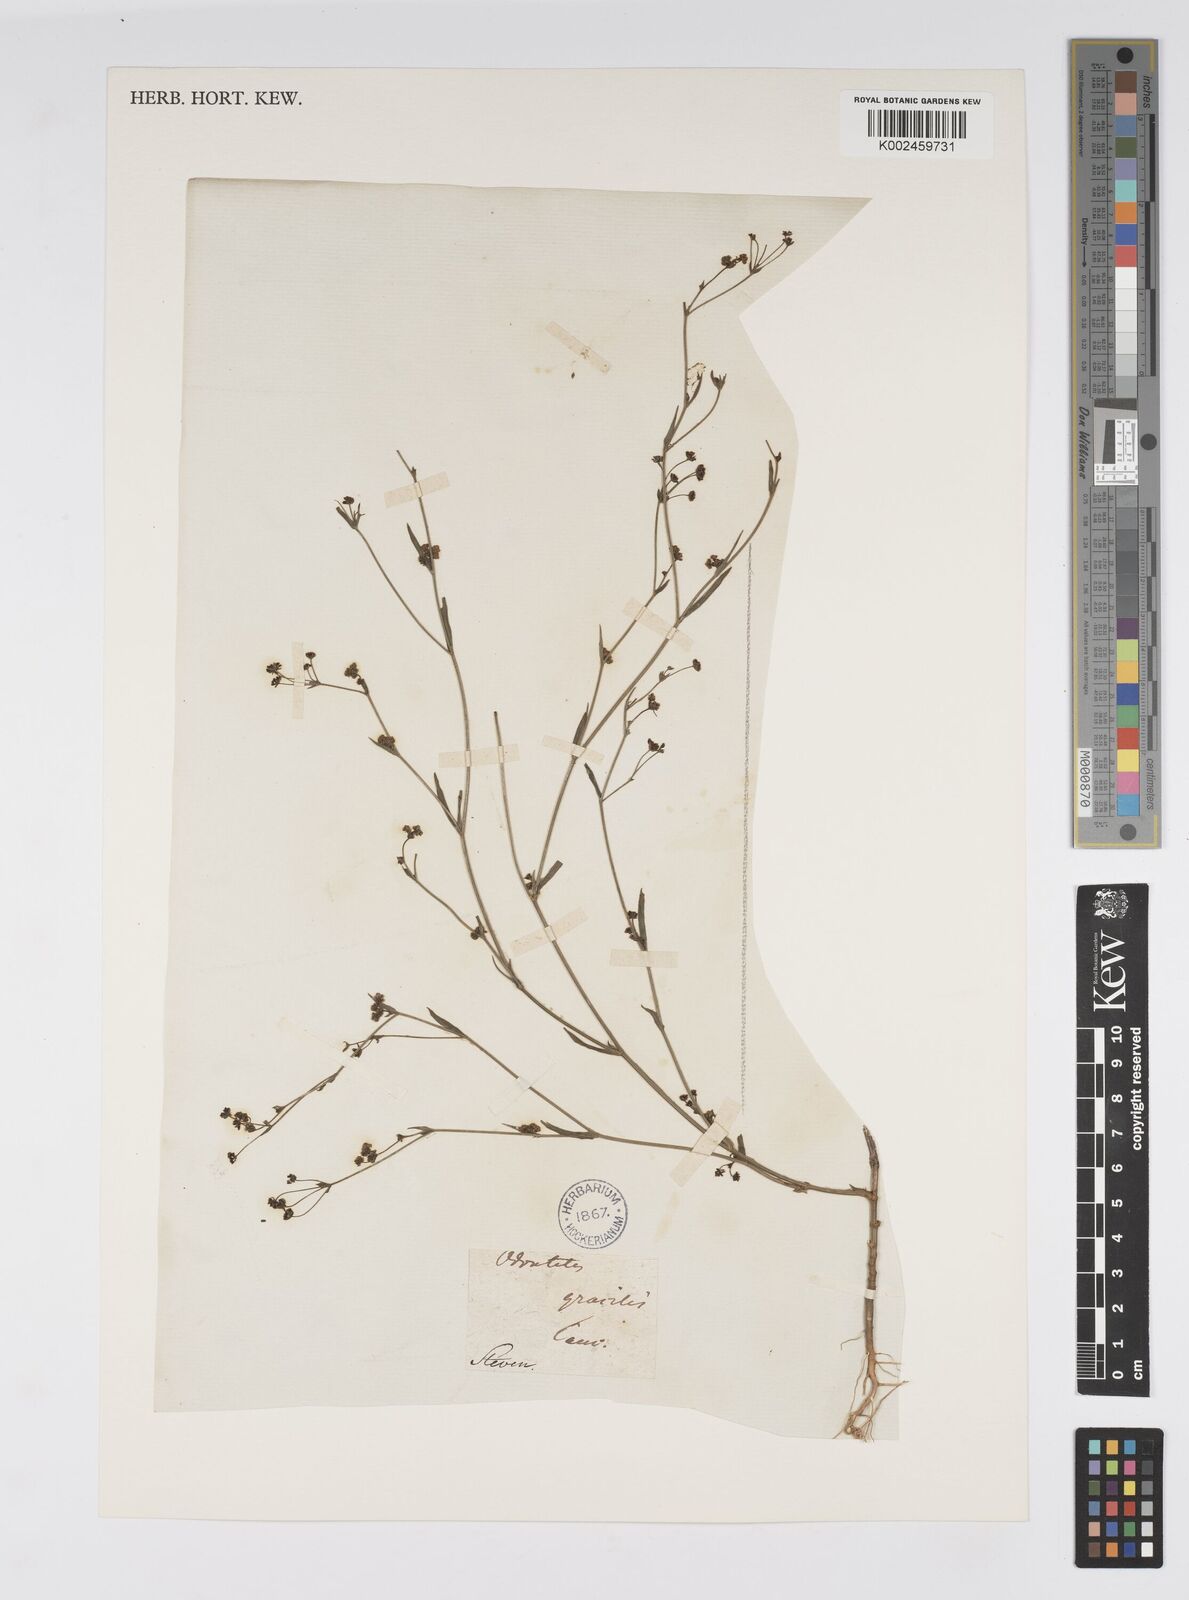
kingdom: Plantae
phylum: Tracheophyta
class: Magnoliopsida
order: Apiales
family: Apiaceae
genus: Bupleurum
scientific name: Bupleurum tenuissimum
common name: Slender hare's-ear
